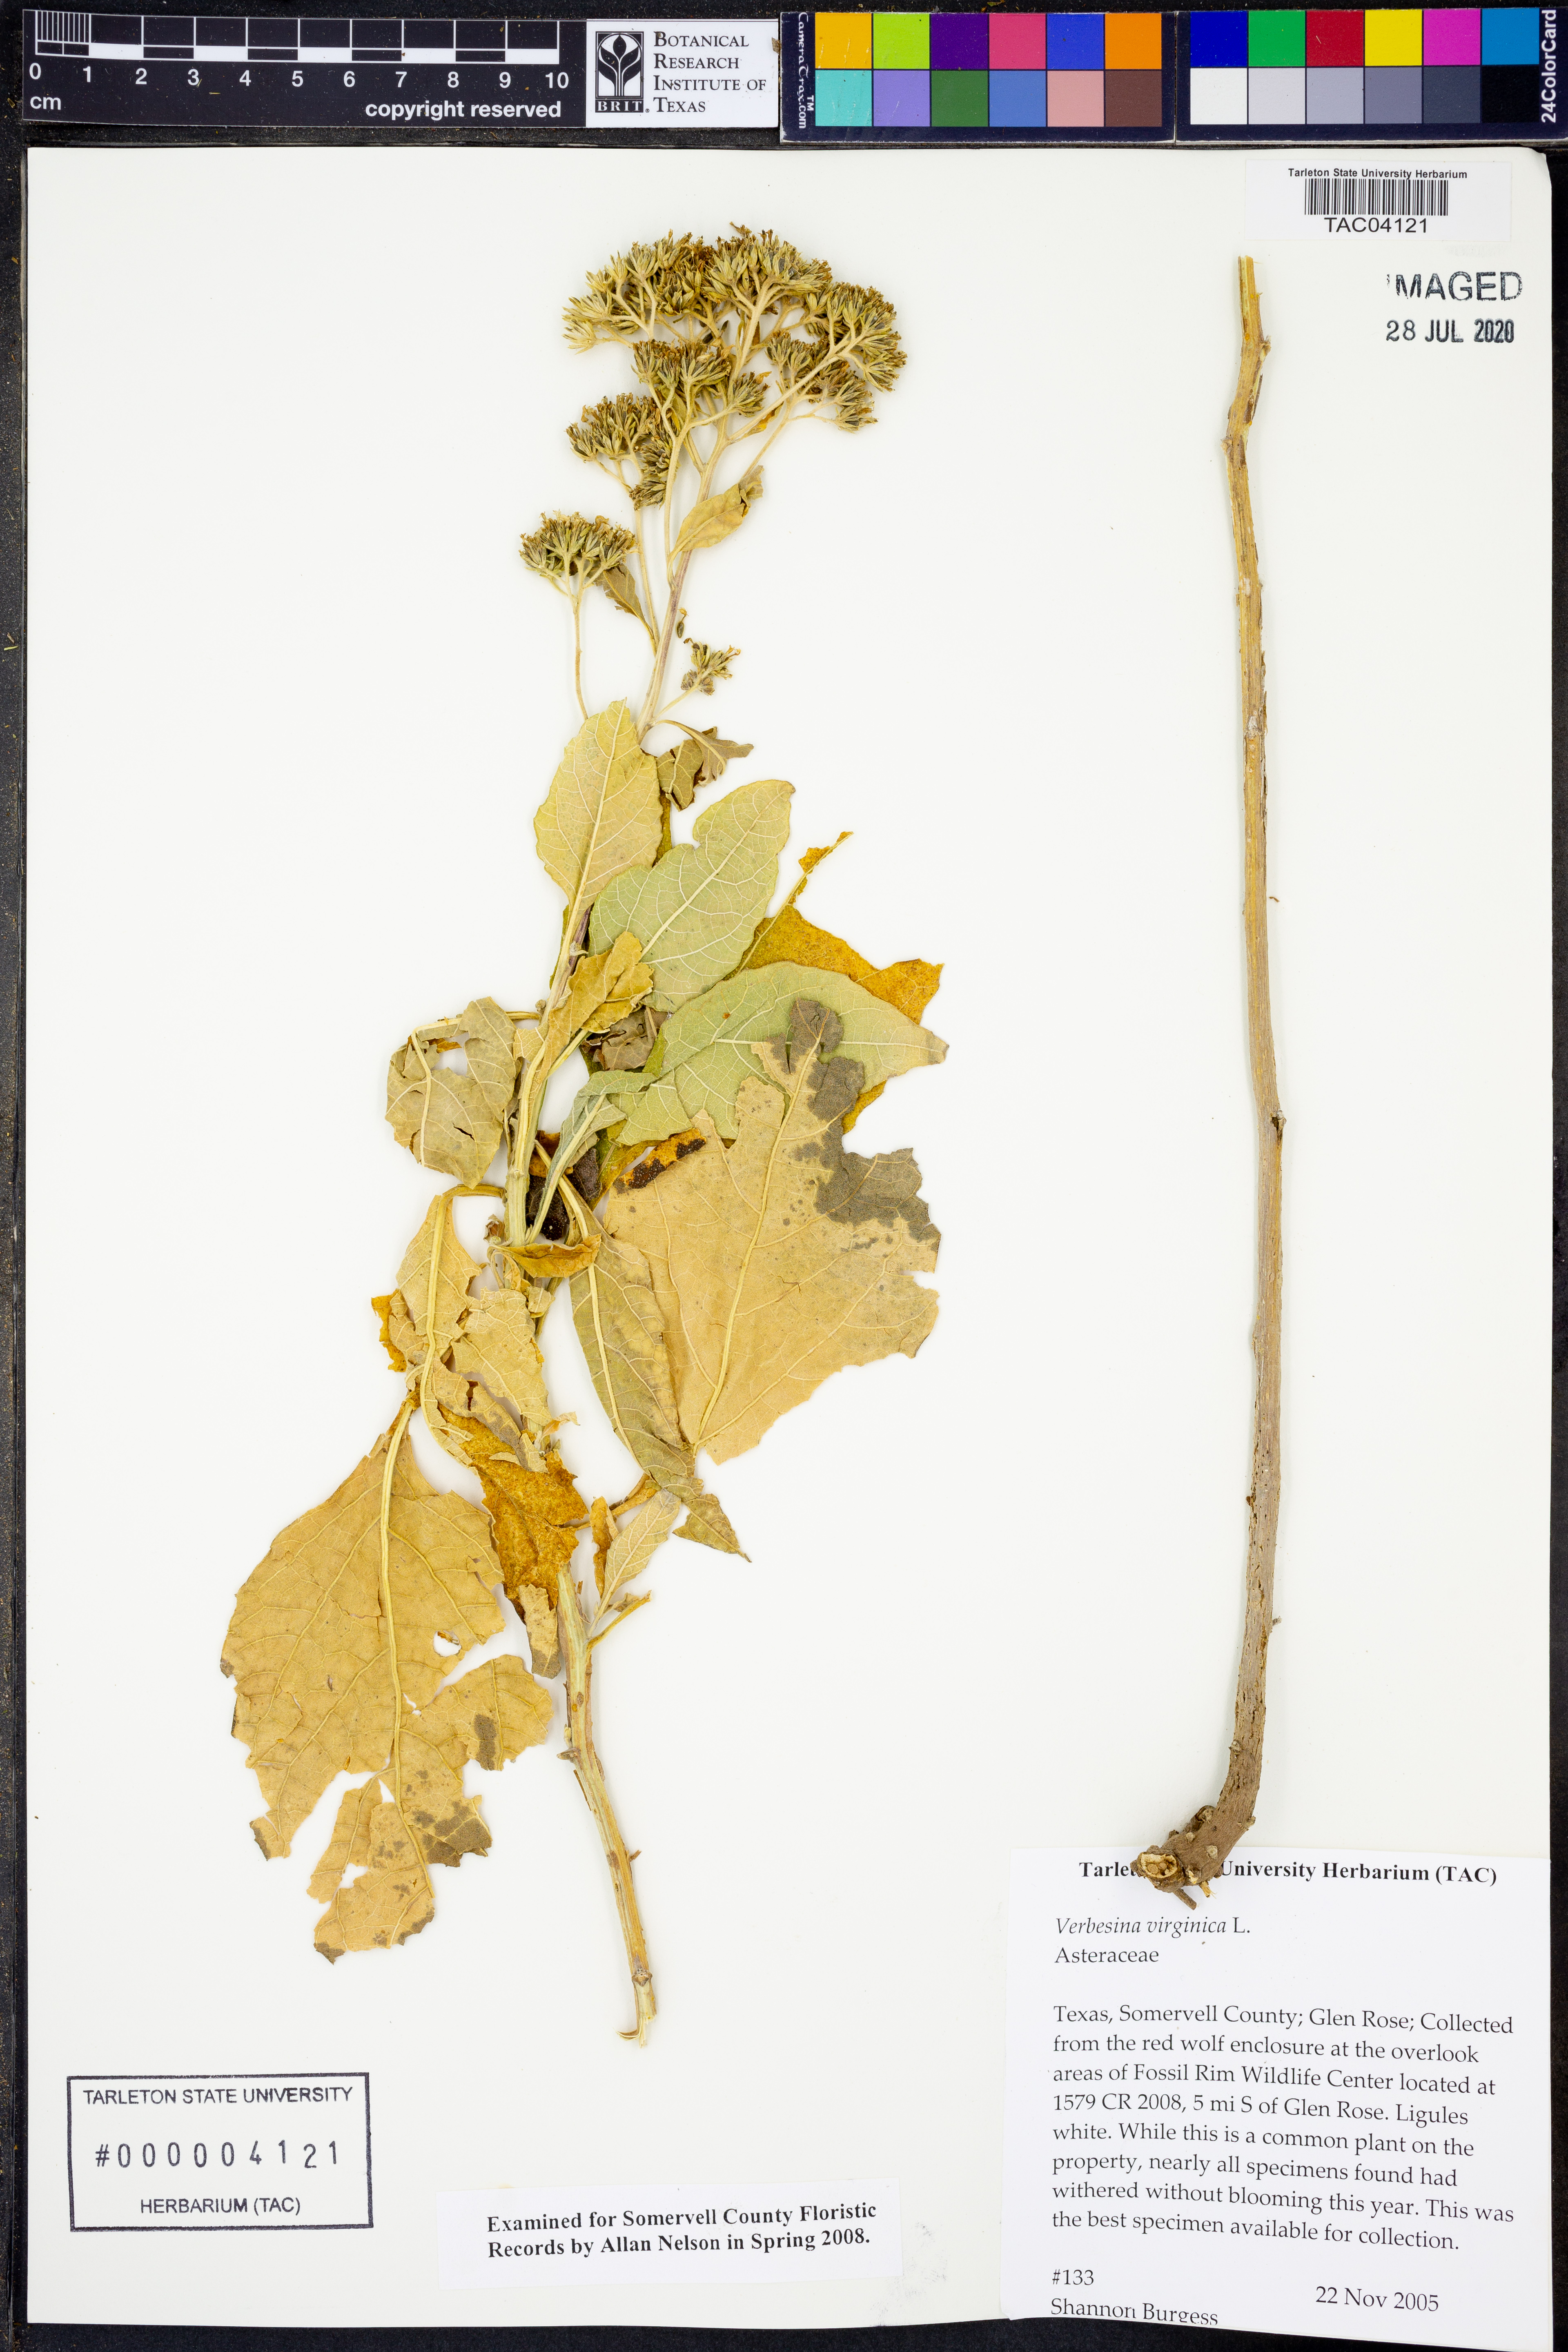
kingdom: Plantae
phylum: Tracheophyta
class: Magnoliopsida
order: Asterales
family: Asteraceae
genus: Verbesina
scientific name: Verbesina virginica
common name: Frostweed
